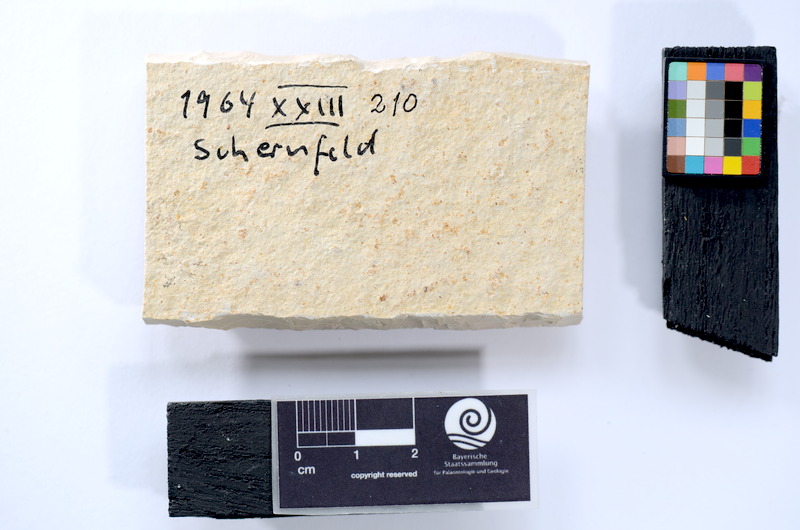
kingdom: Animalia
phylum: Chordata
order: Salmoniformes
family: Orthogonikleithridae
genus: Leptolepides
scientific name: Leptolepides
